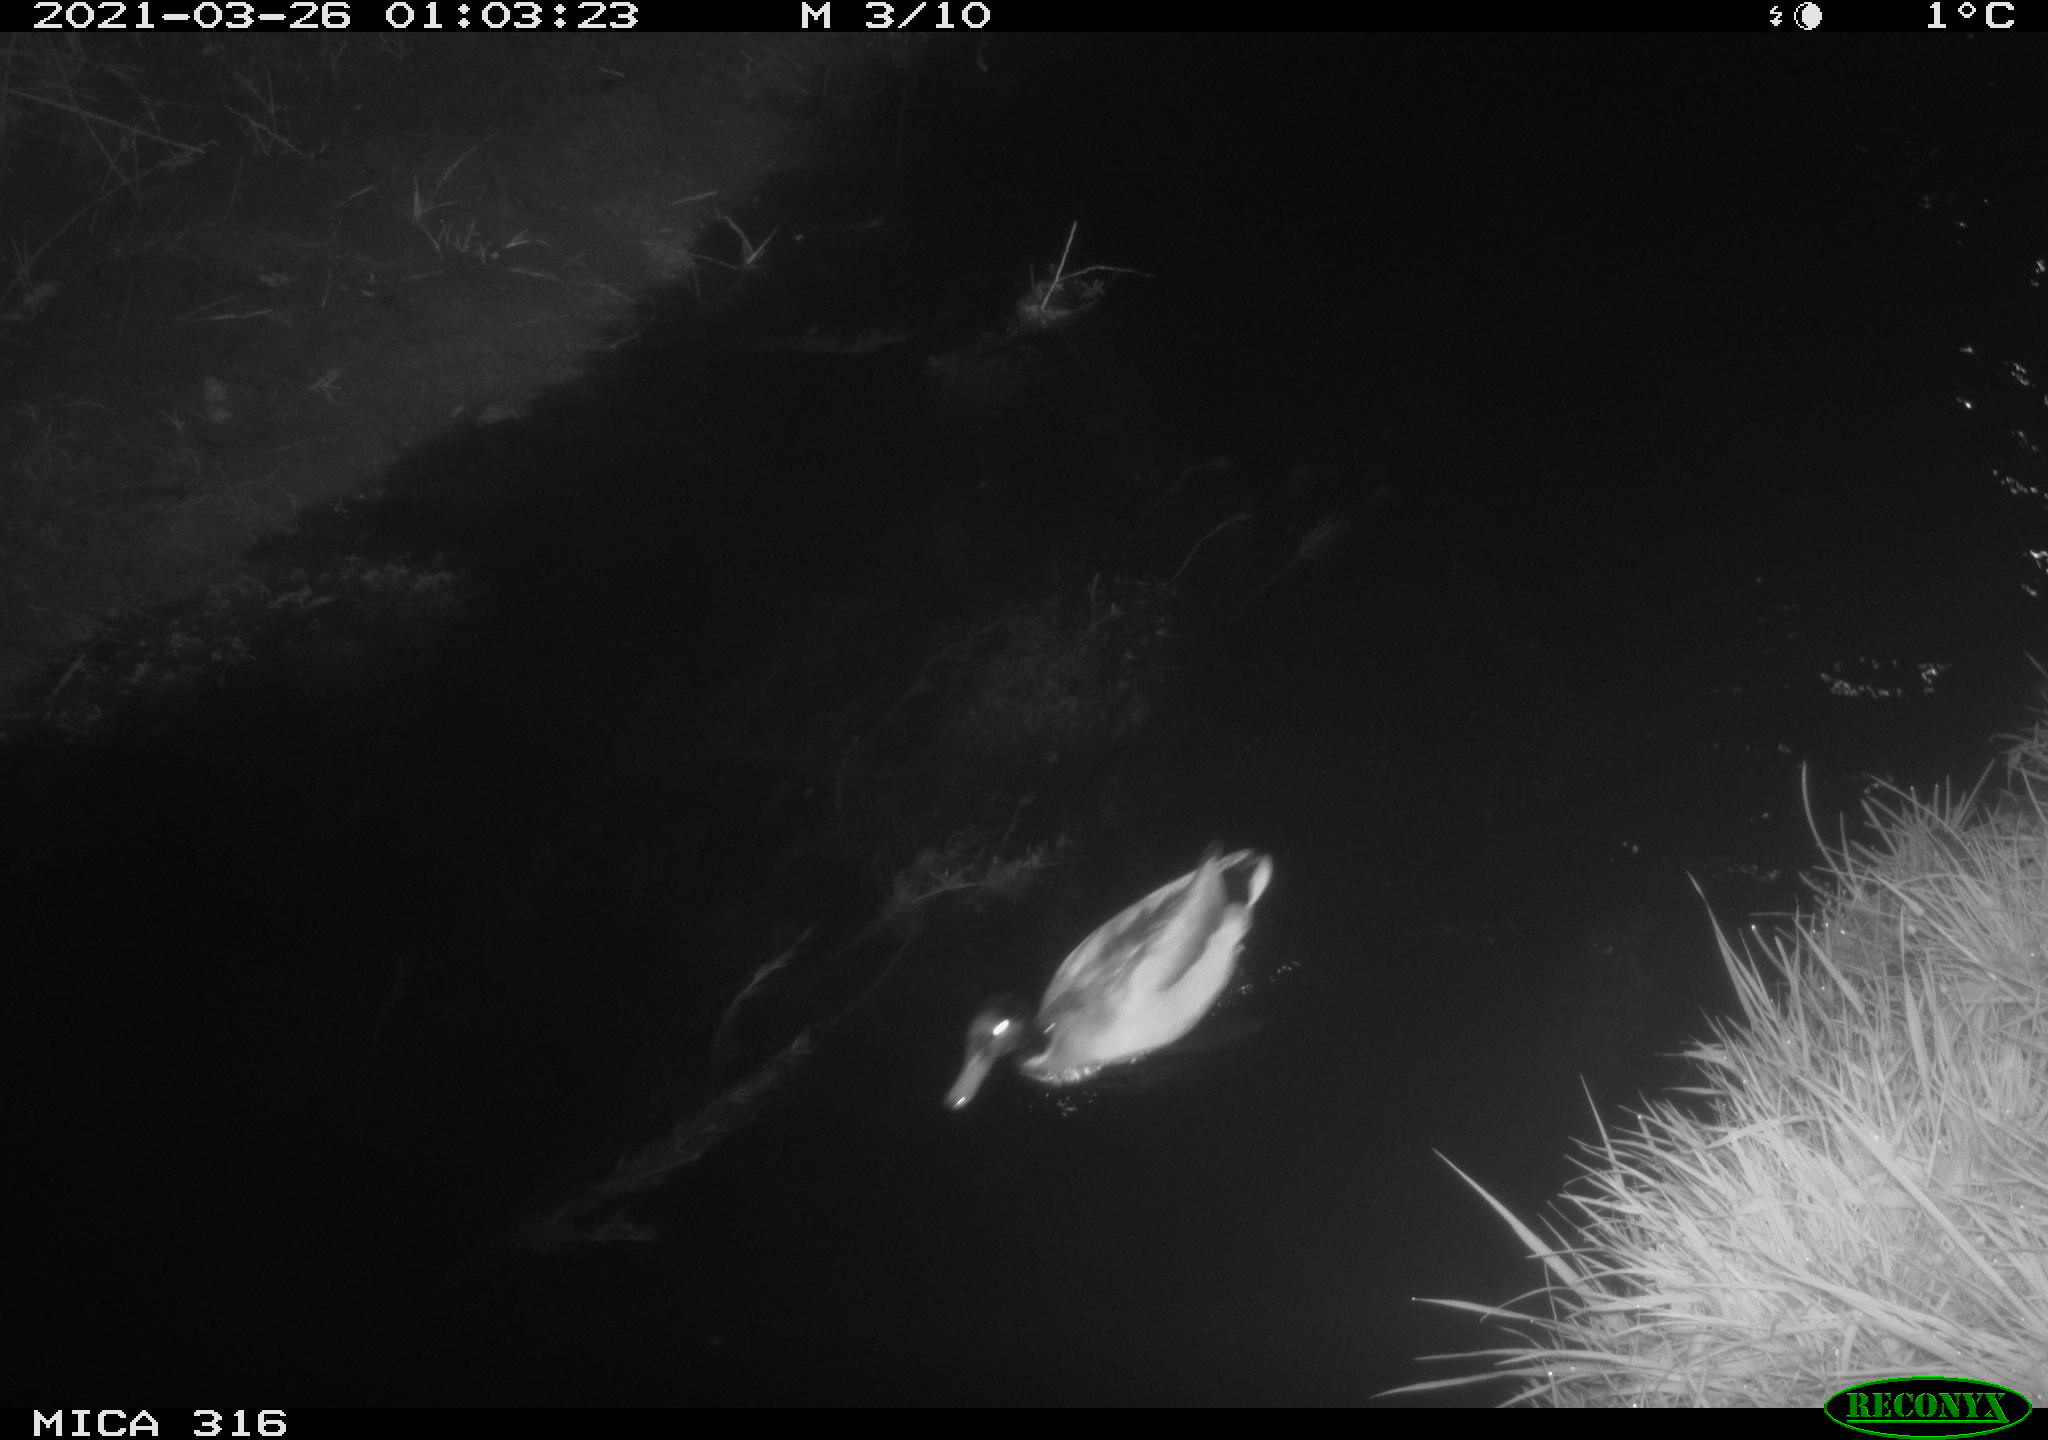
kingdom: Animalia
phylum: Chordata
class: Aves
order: Anseriformes
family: Anatidae
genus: Anas
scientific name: Anas platyrhynchos
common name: Mallard
